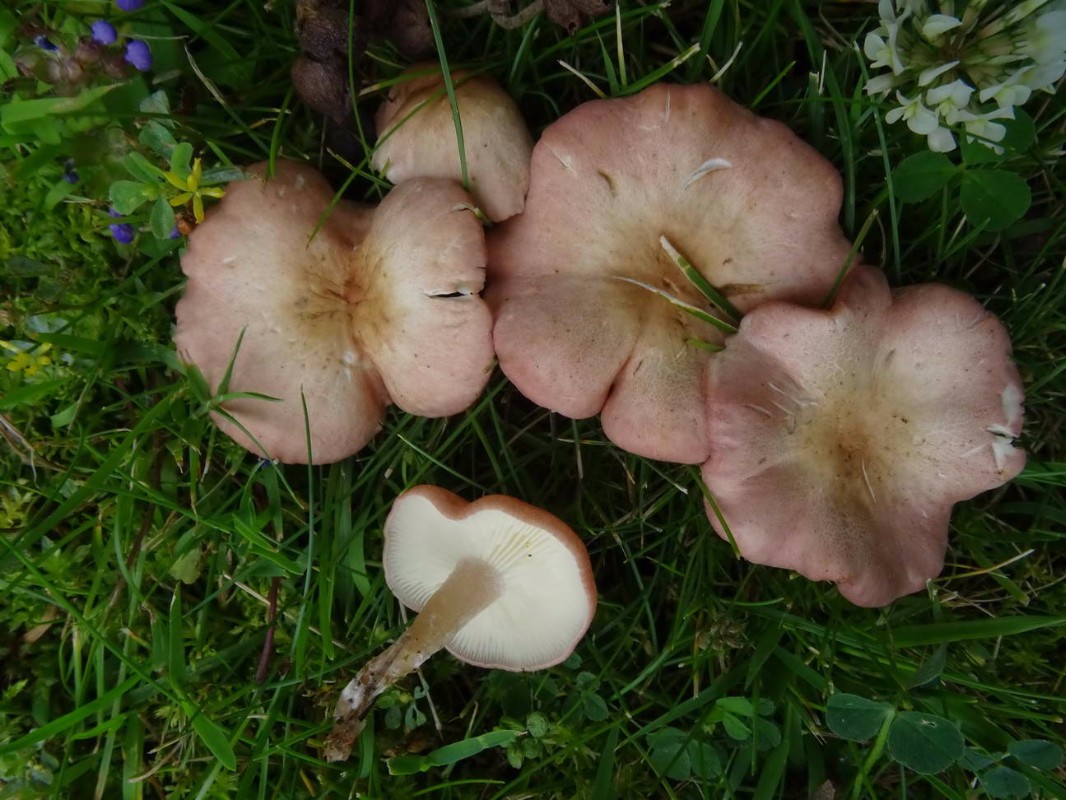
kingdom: Fungi
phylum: Basidiomycota
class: Agaricomycetes
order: Agaricales
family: Lyophyllaceae
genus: Calocybe
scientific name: Calocybe carnea
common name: rosa fagerhat
